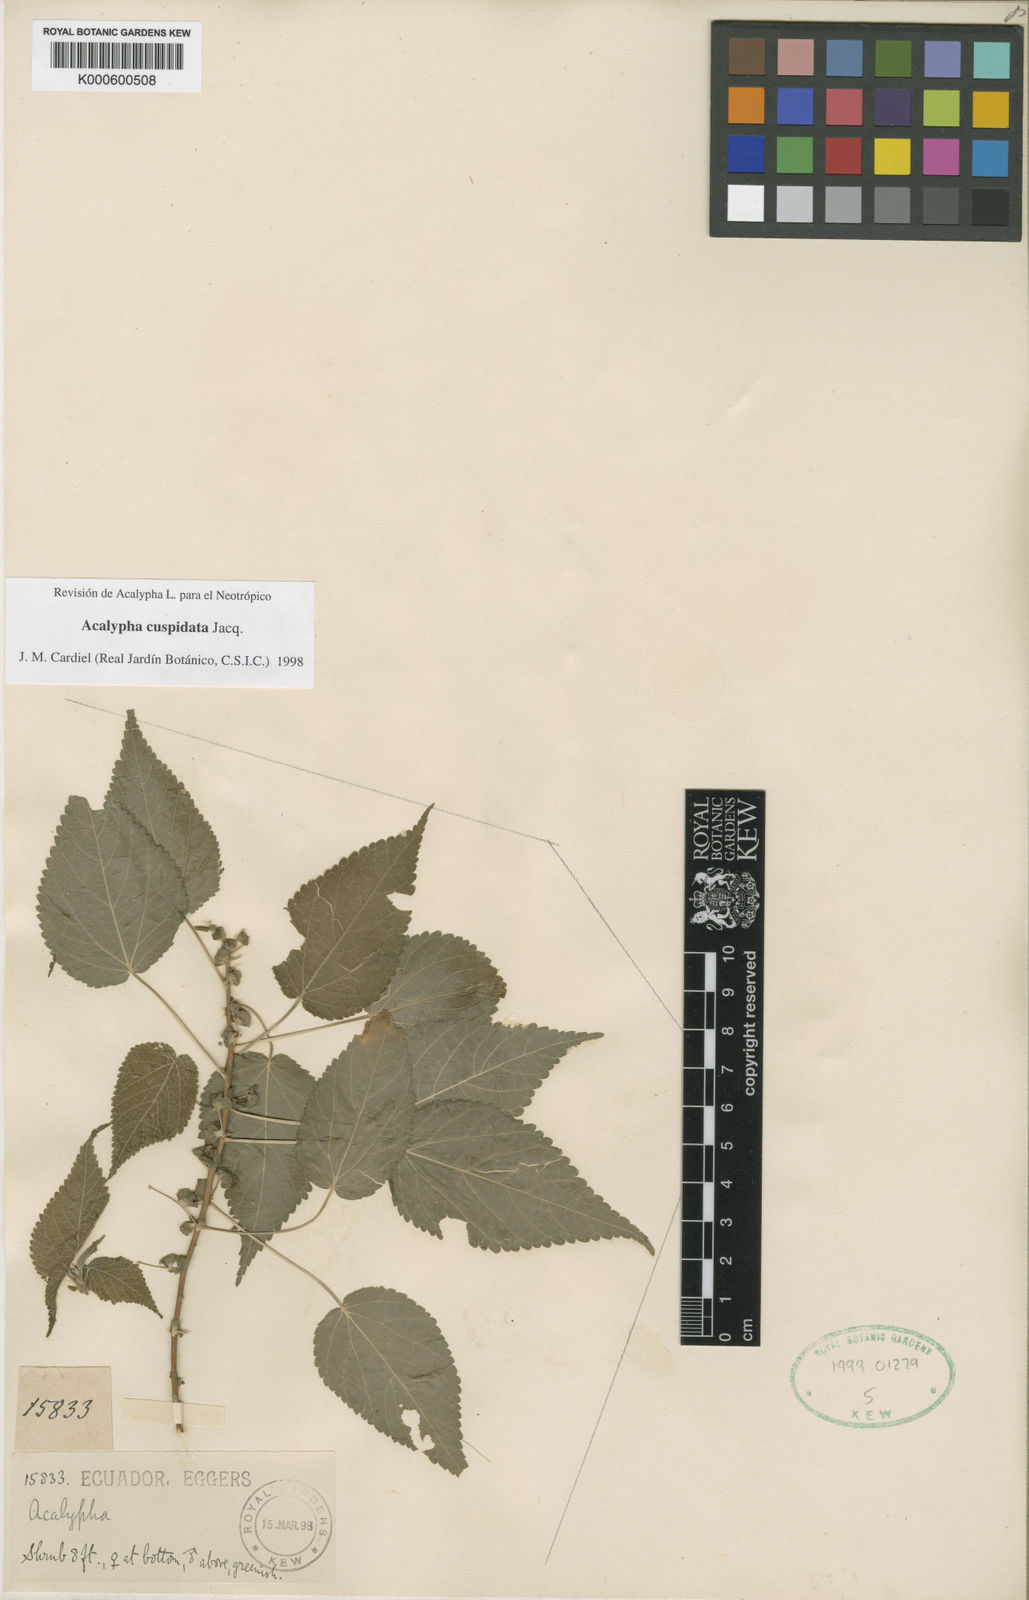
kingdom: Plantae
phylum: Tracheophyta
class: Magnoliopsida
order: Malpighiales
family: Euphorbiaceae
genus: Acalypha
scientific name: Acalypha cuspidata
